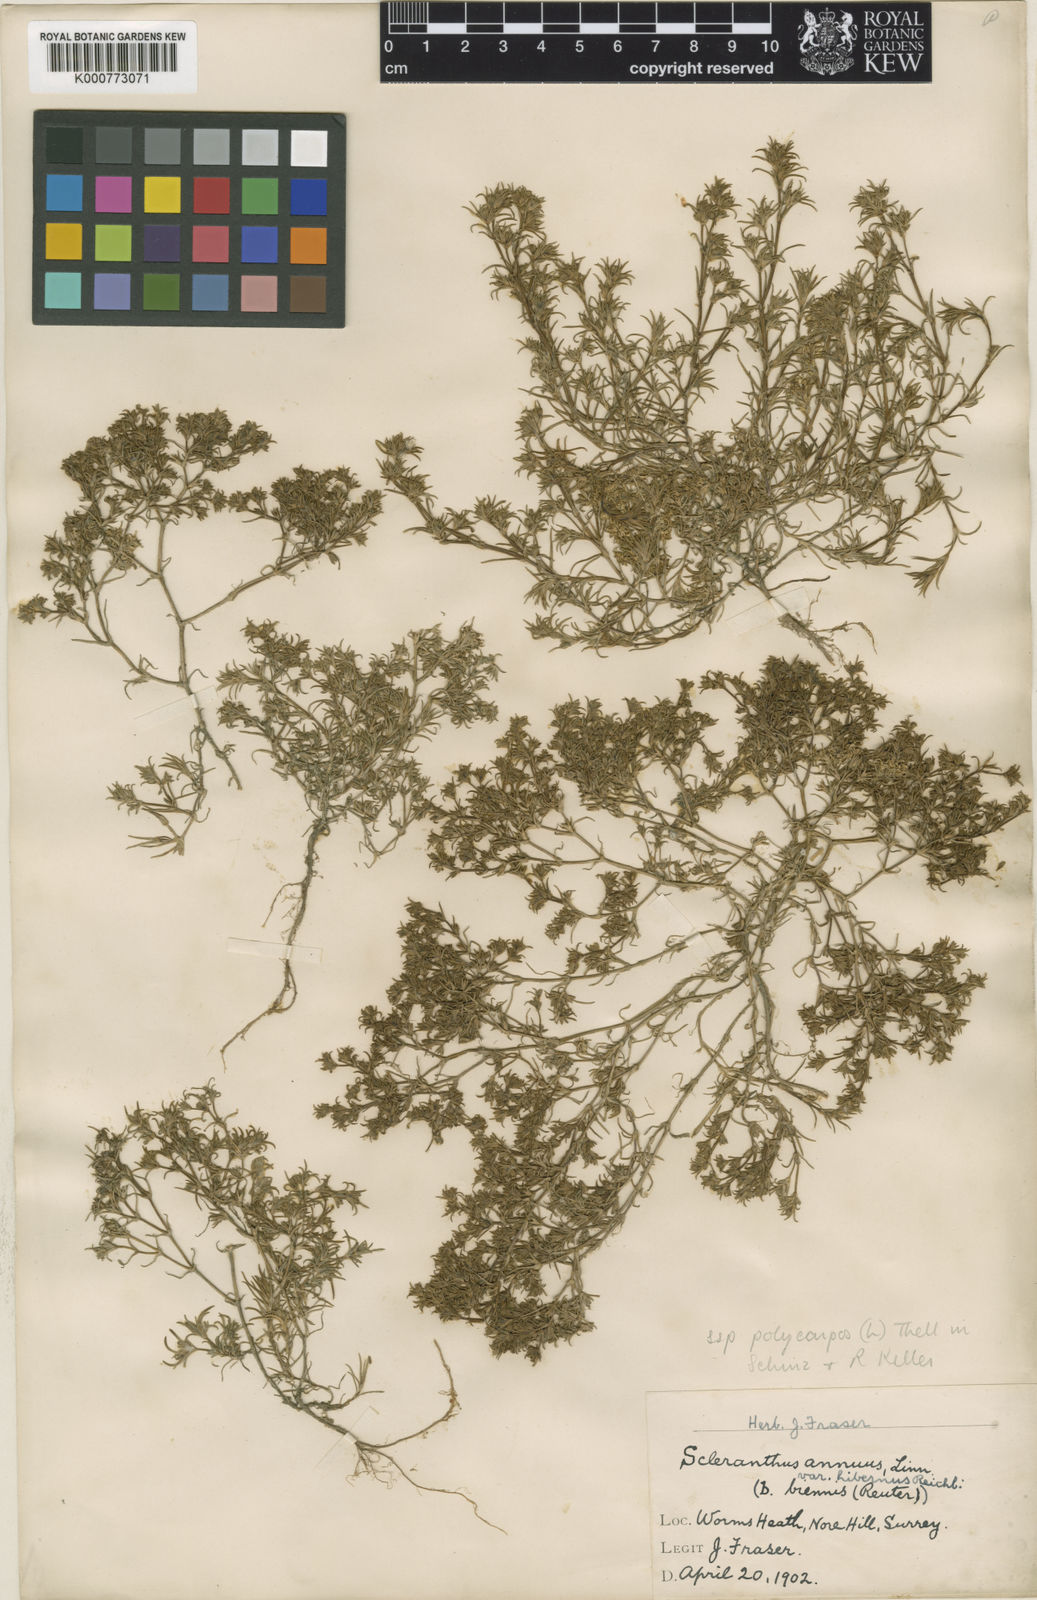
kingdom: Plantae
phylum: Tracheophyta
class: Magnoliopsida
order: Caryophyllales
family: Caryophyllaceae
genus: Scleranthus
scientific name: Scleranthus annuus
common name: Annual knawel
